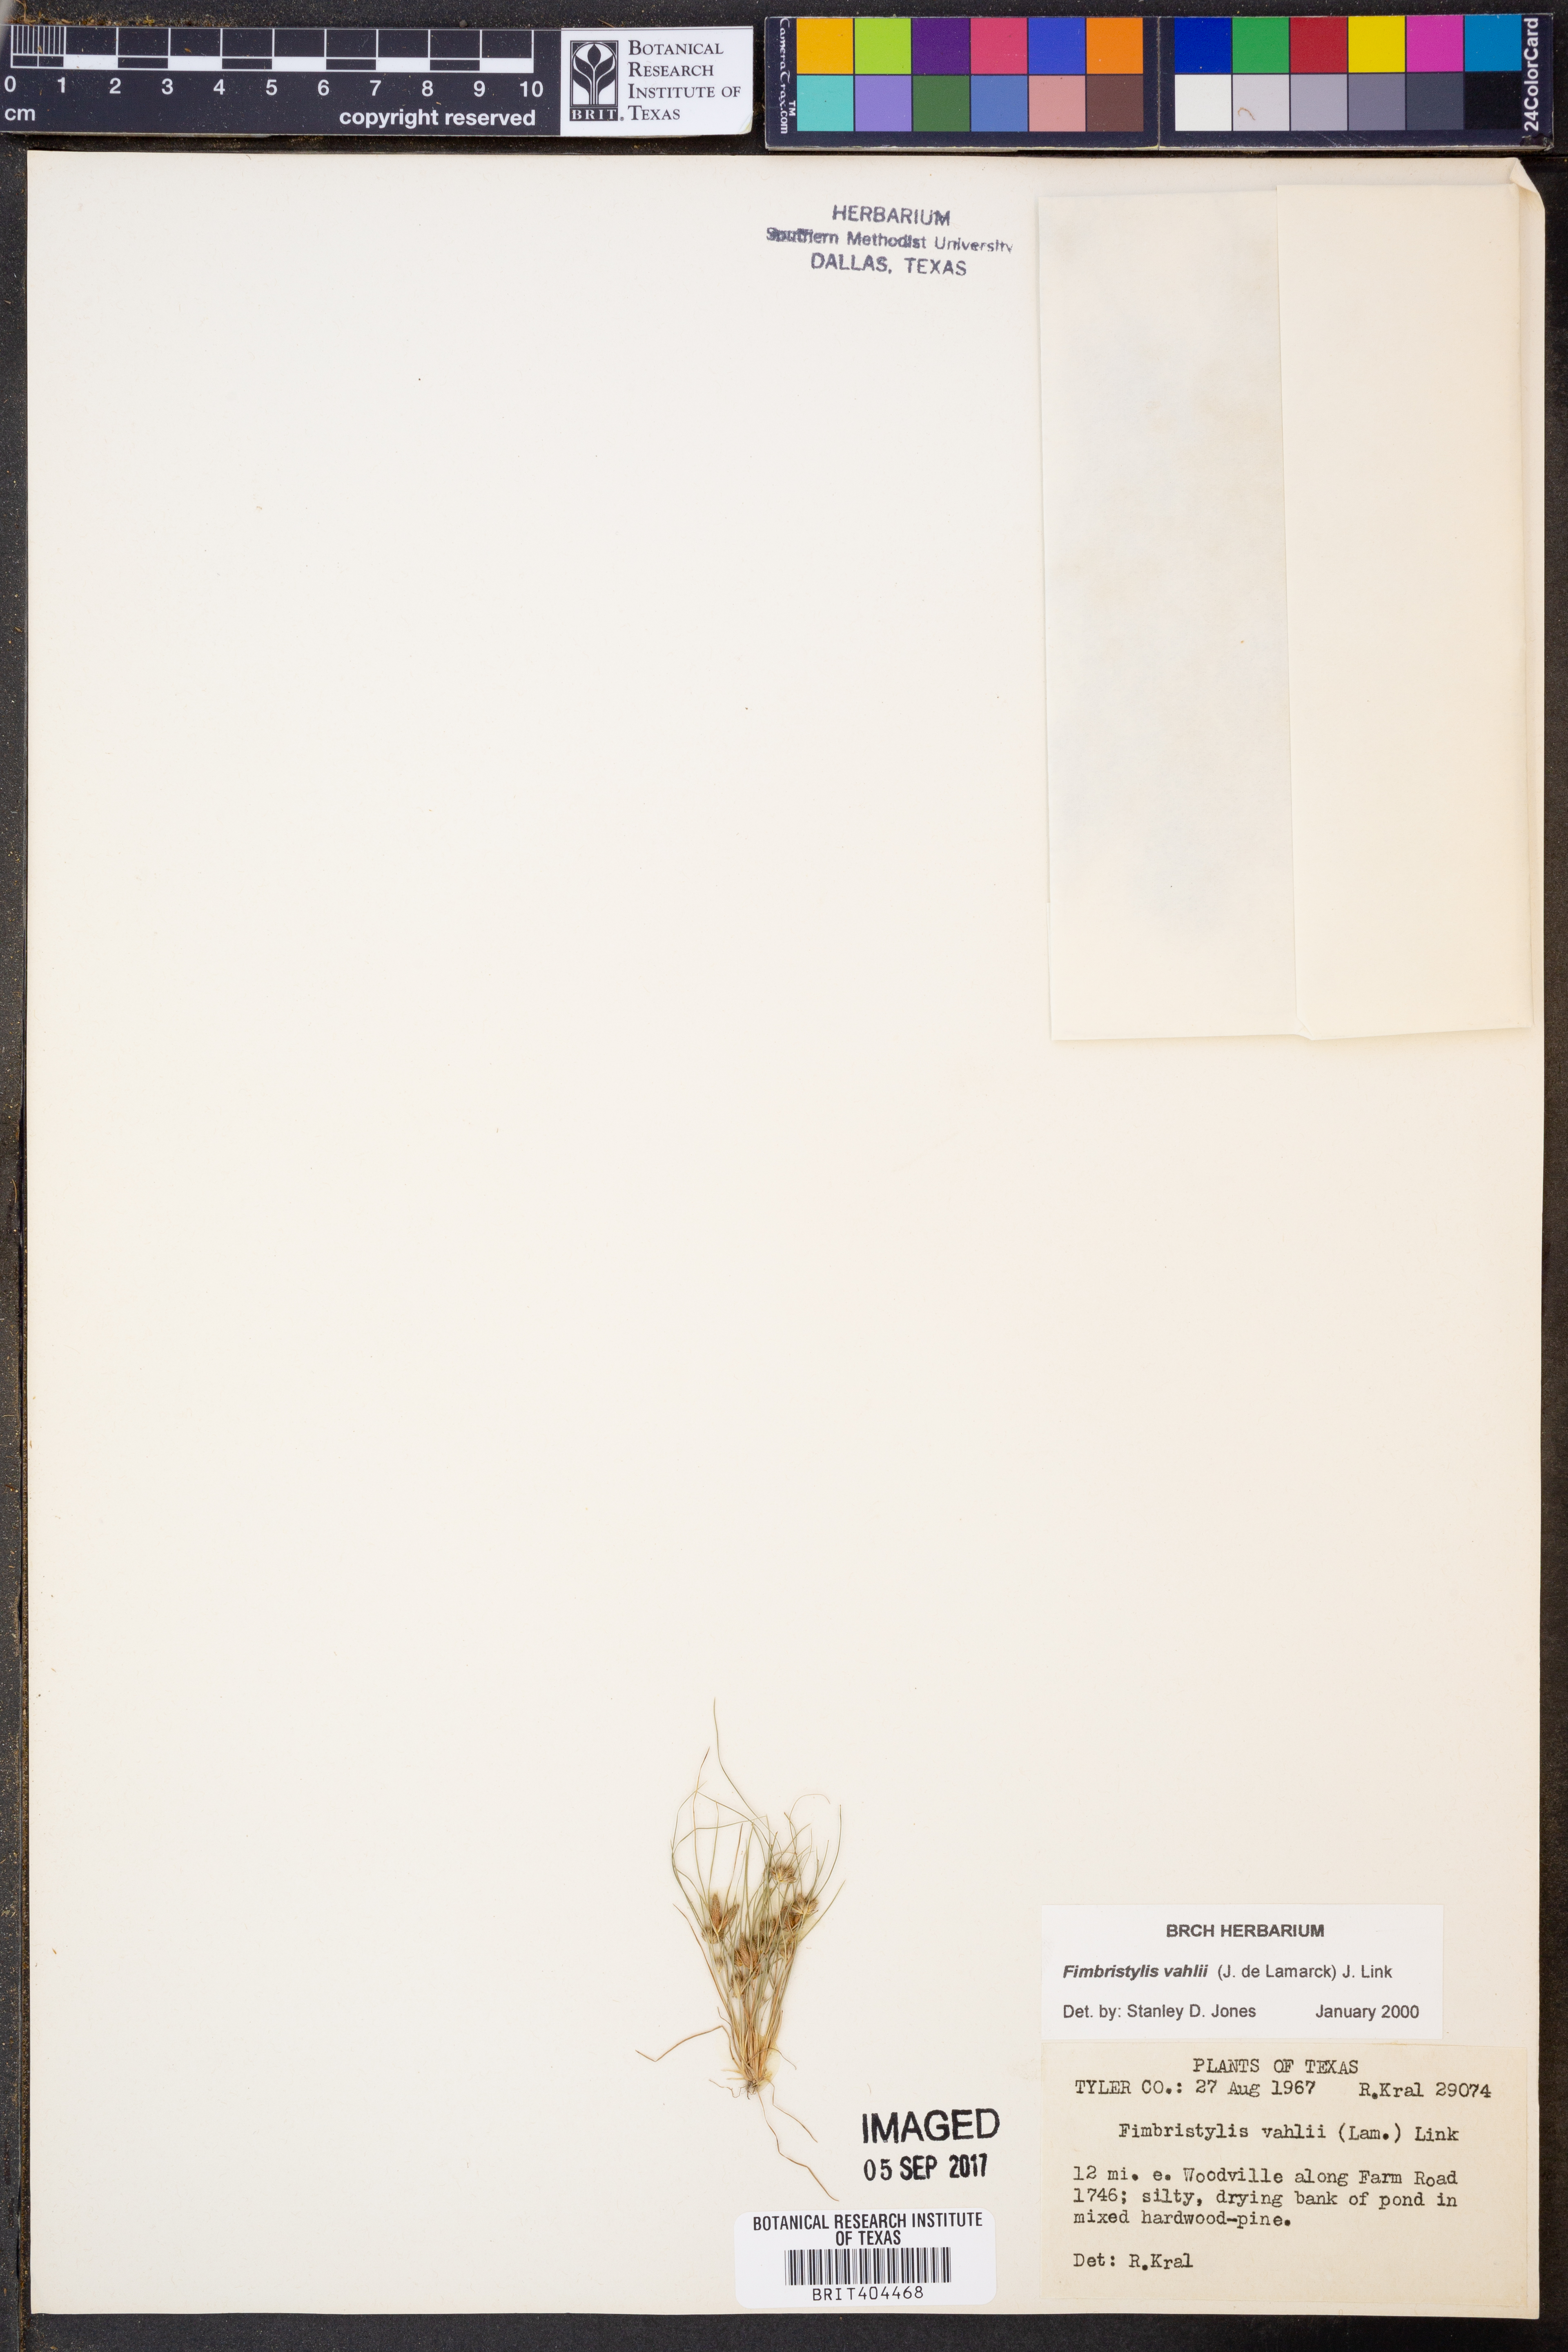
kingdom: Plantae
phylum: Tracheophyta
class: Liliopsida
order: Poales
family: Cyperaceae
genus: Fimbristylis
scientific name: Fimbristylis vahlii
